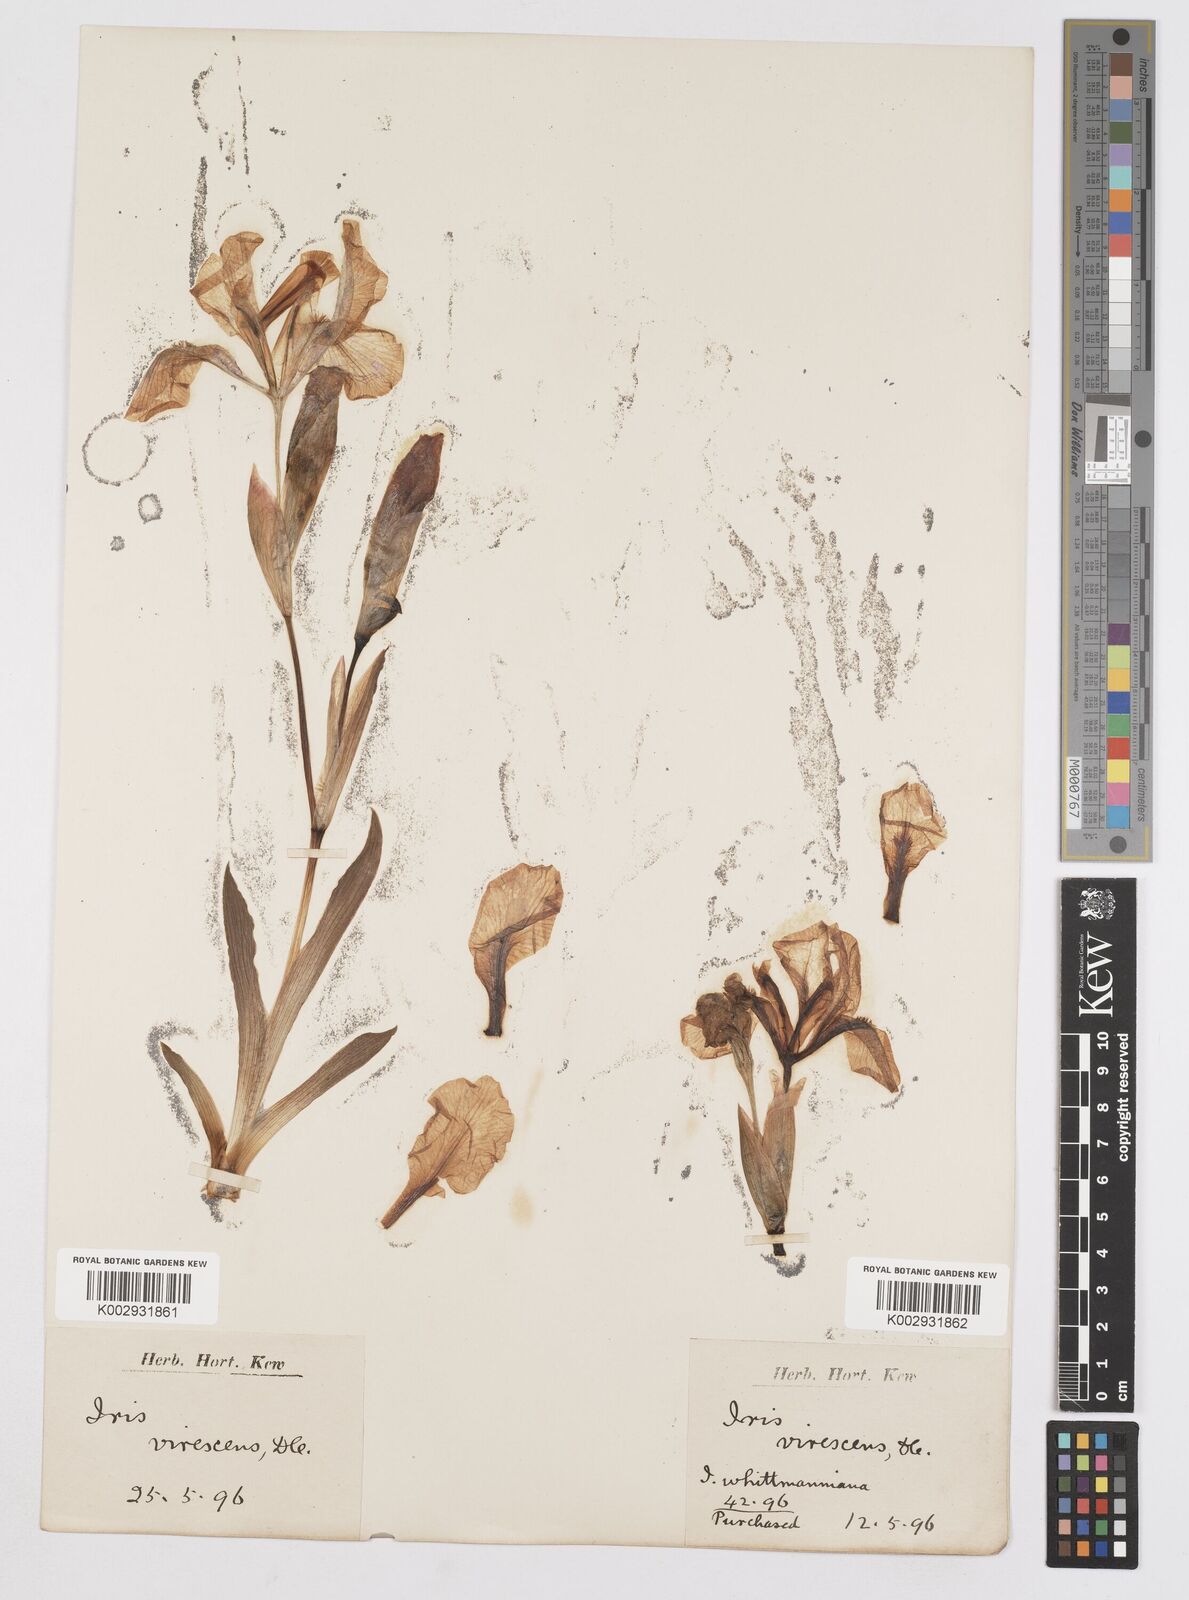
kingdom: Plantae
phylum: Tracheophyta
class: Liliopsida
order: Asparagales
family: Iridaceae
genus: Iris
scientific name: Iris lutescens
